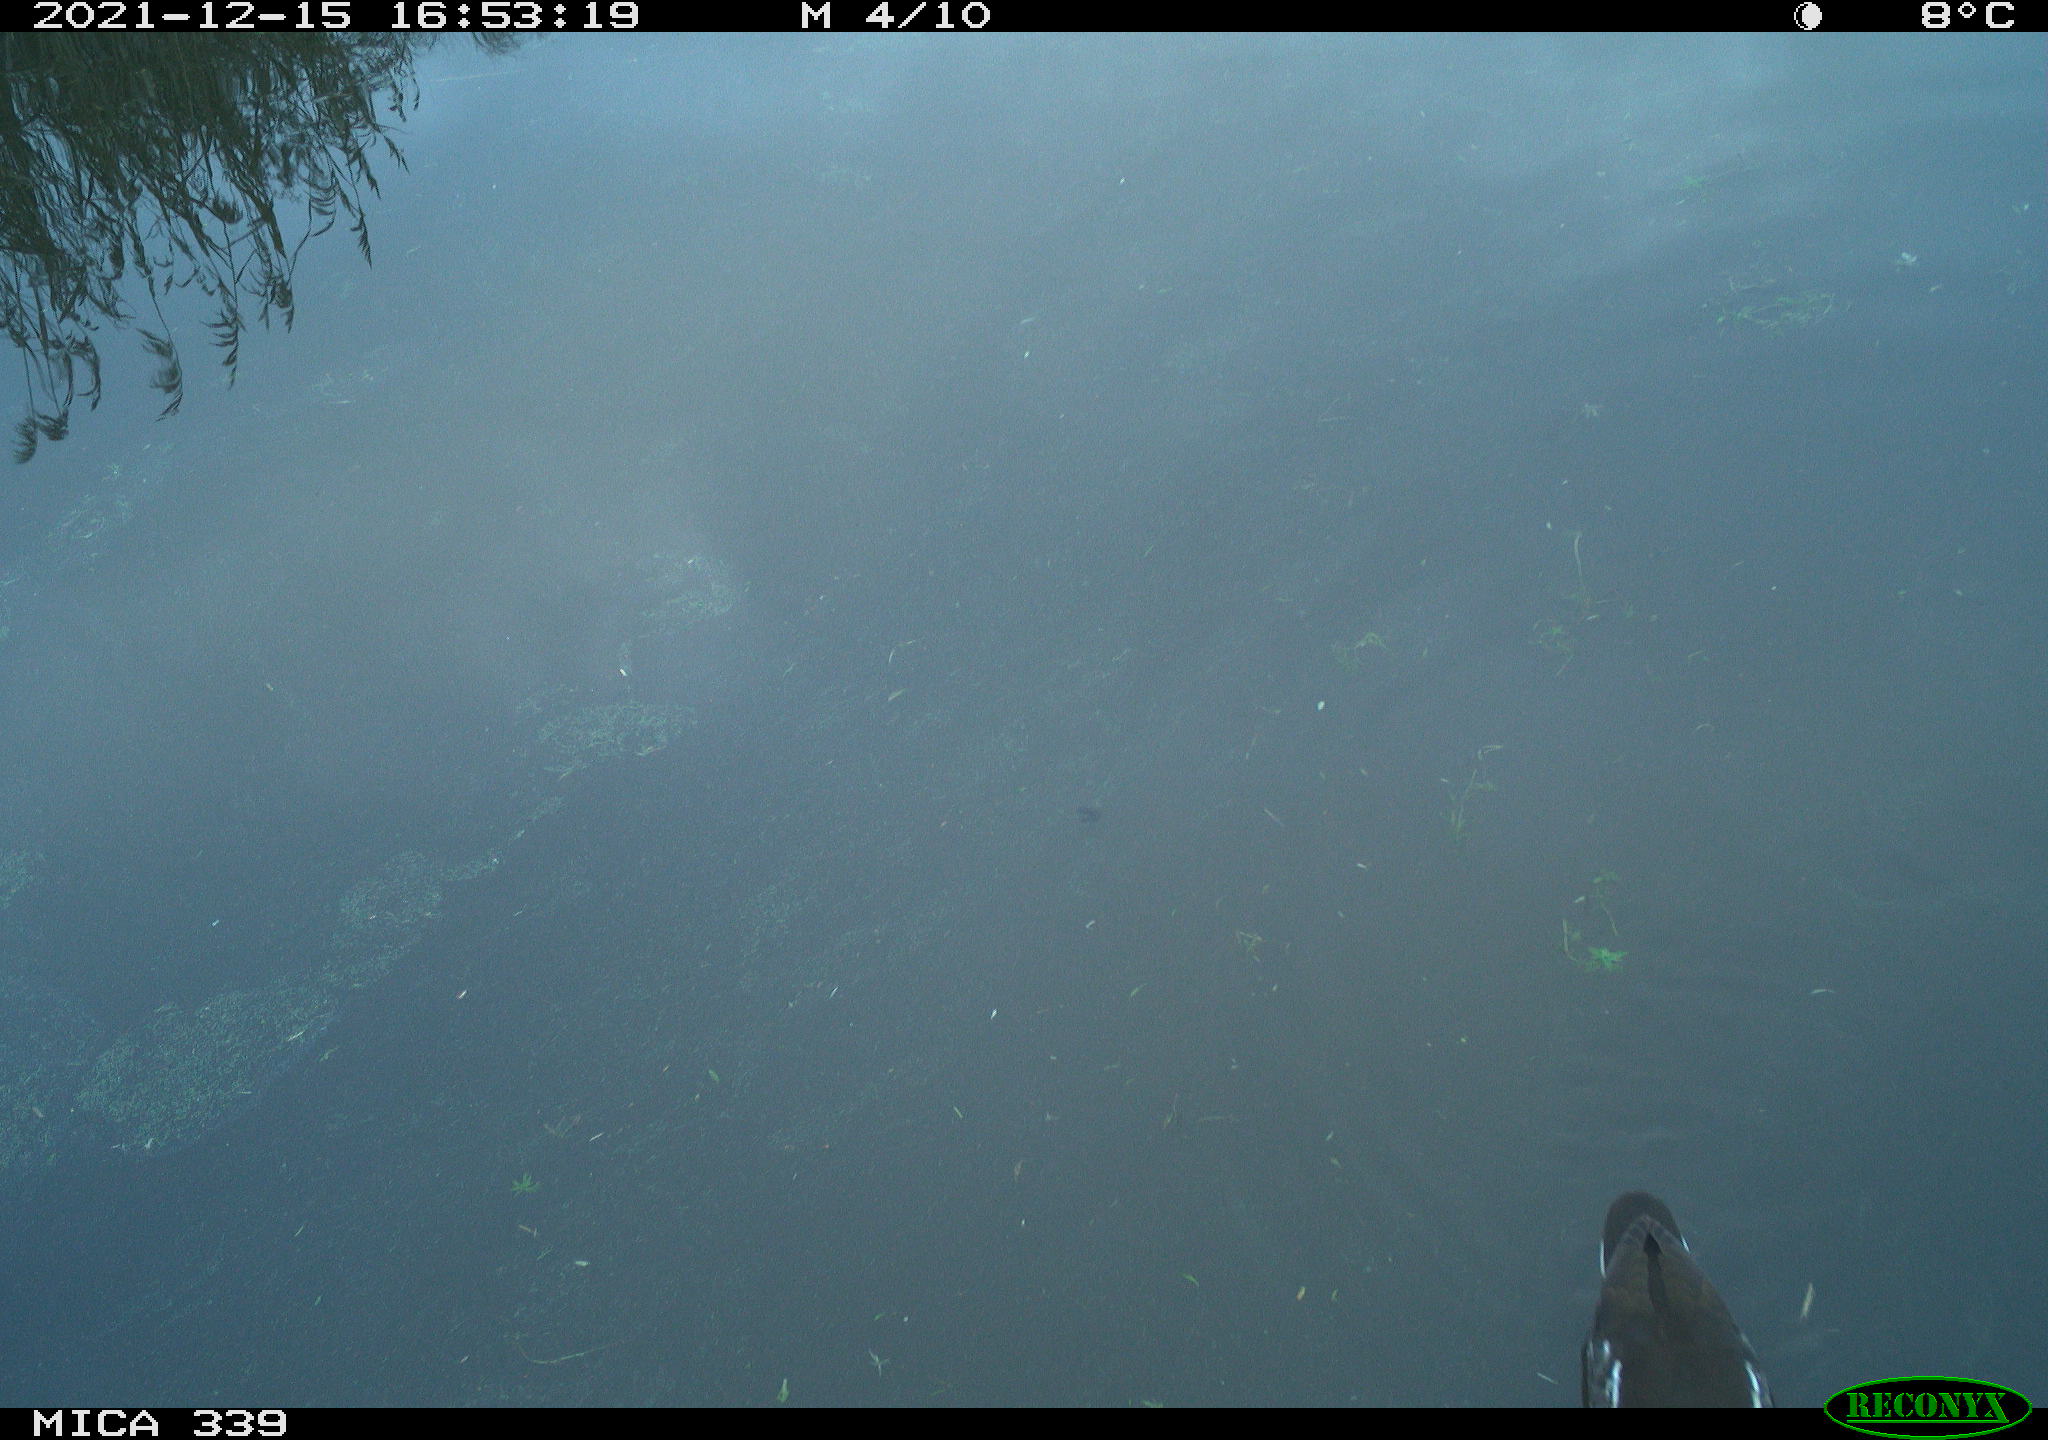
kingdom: Animalia
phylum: Chordata
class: Aves
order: Gruiformes
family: Rallidae
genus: Gallinula
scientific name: Gallinula chloropus
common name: Common moorhen
